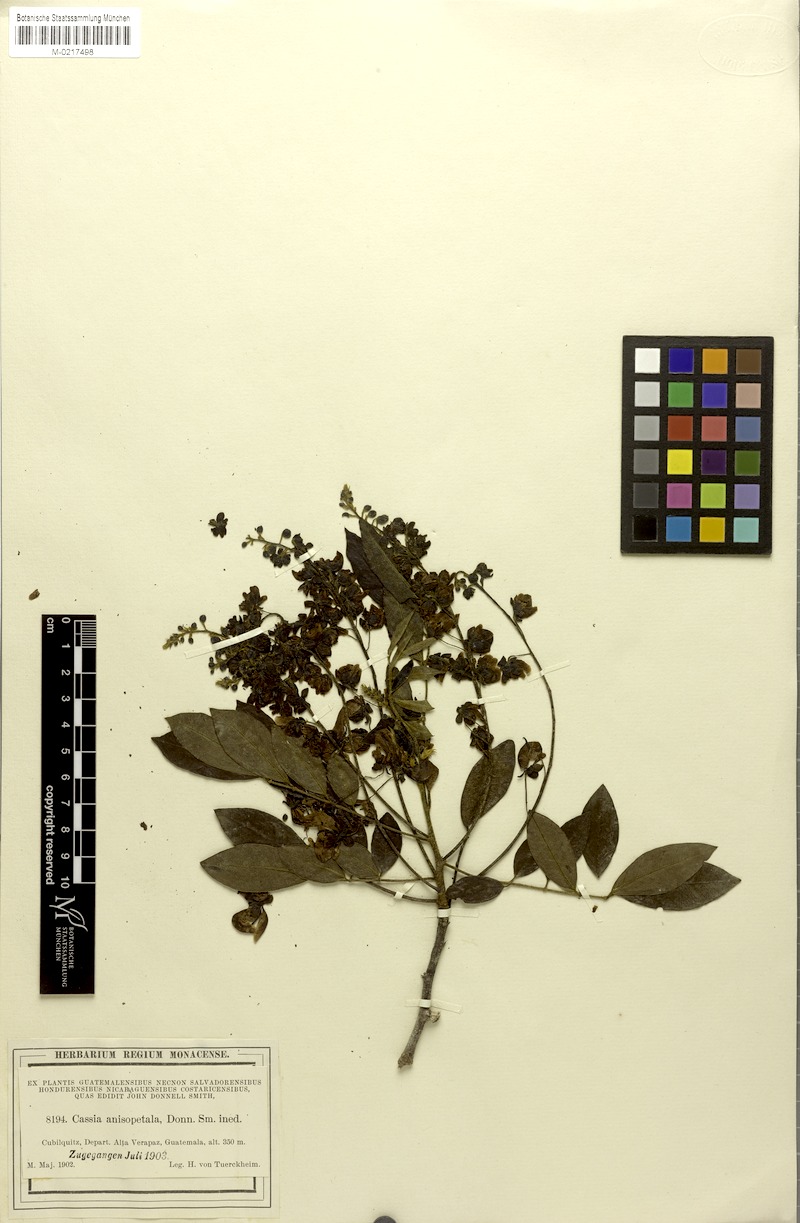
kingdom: Plantae
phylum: Tracheophyta
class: Magnoliopsida
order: Fabales
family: Fabaceae
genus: Senna
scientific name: Senna peralteana
